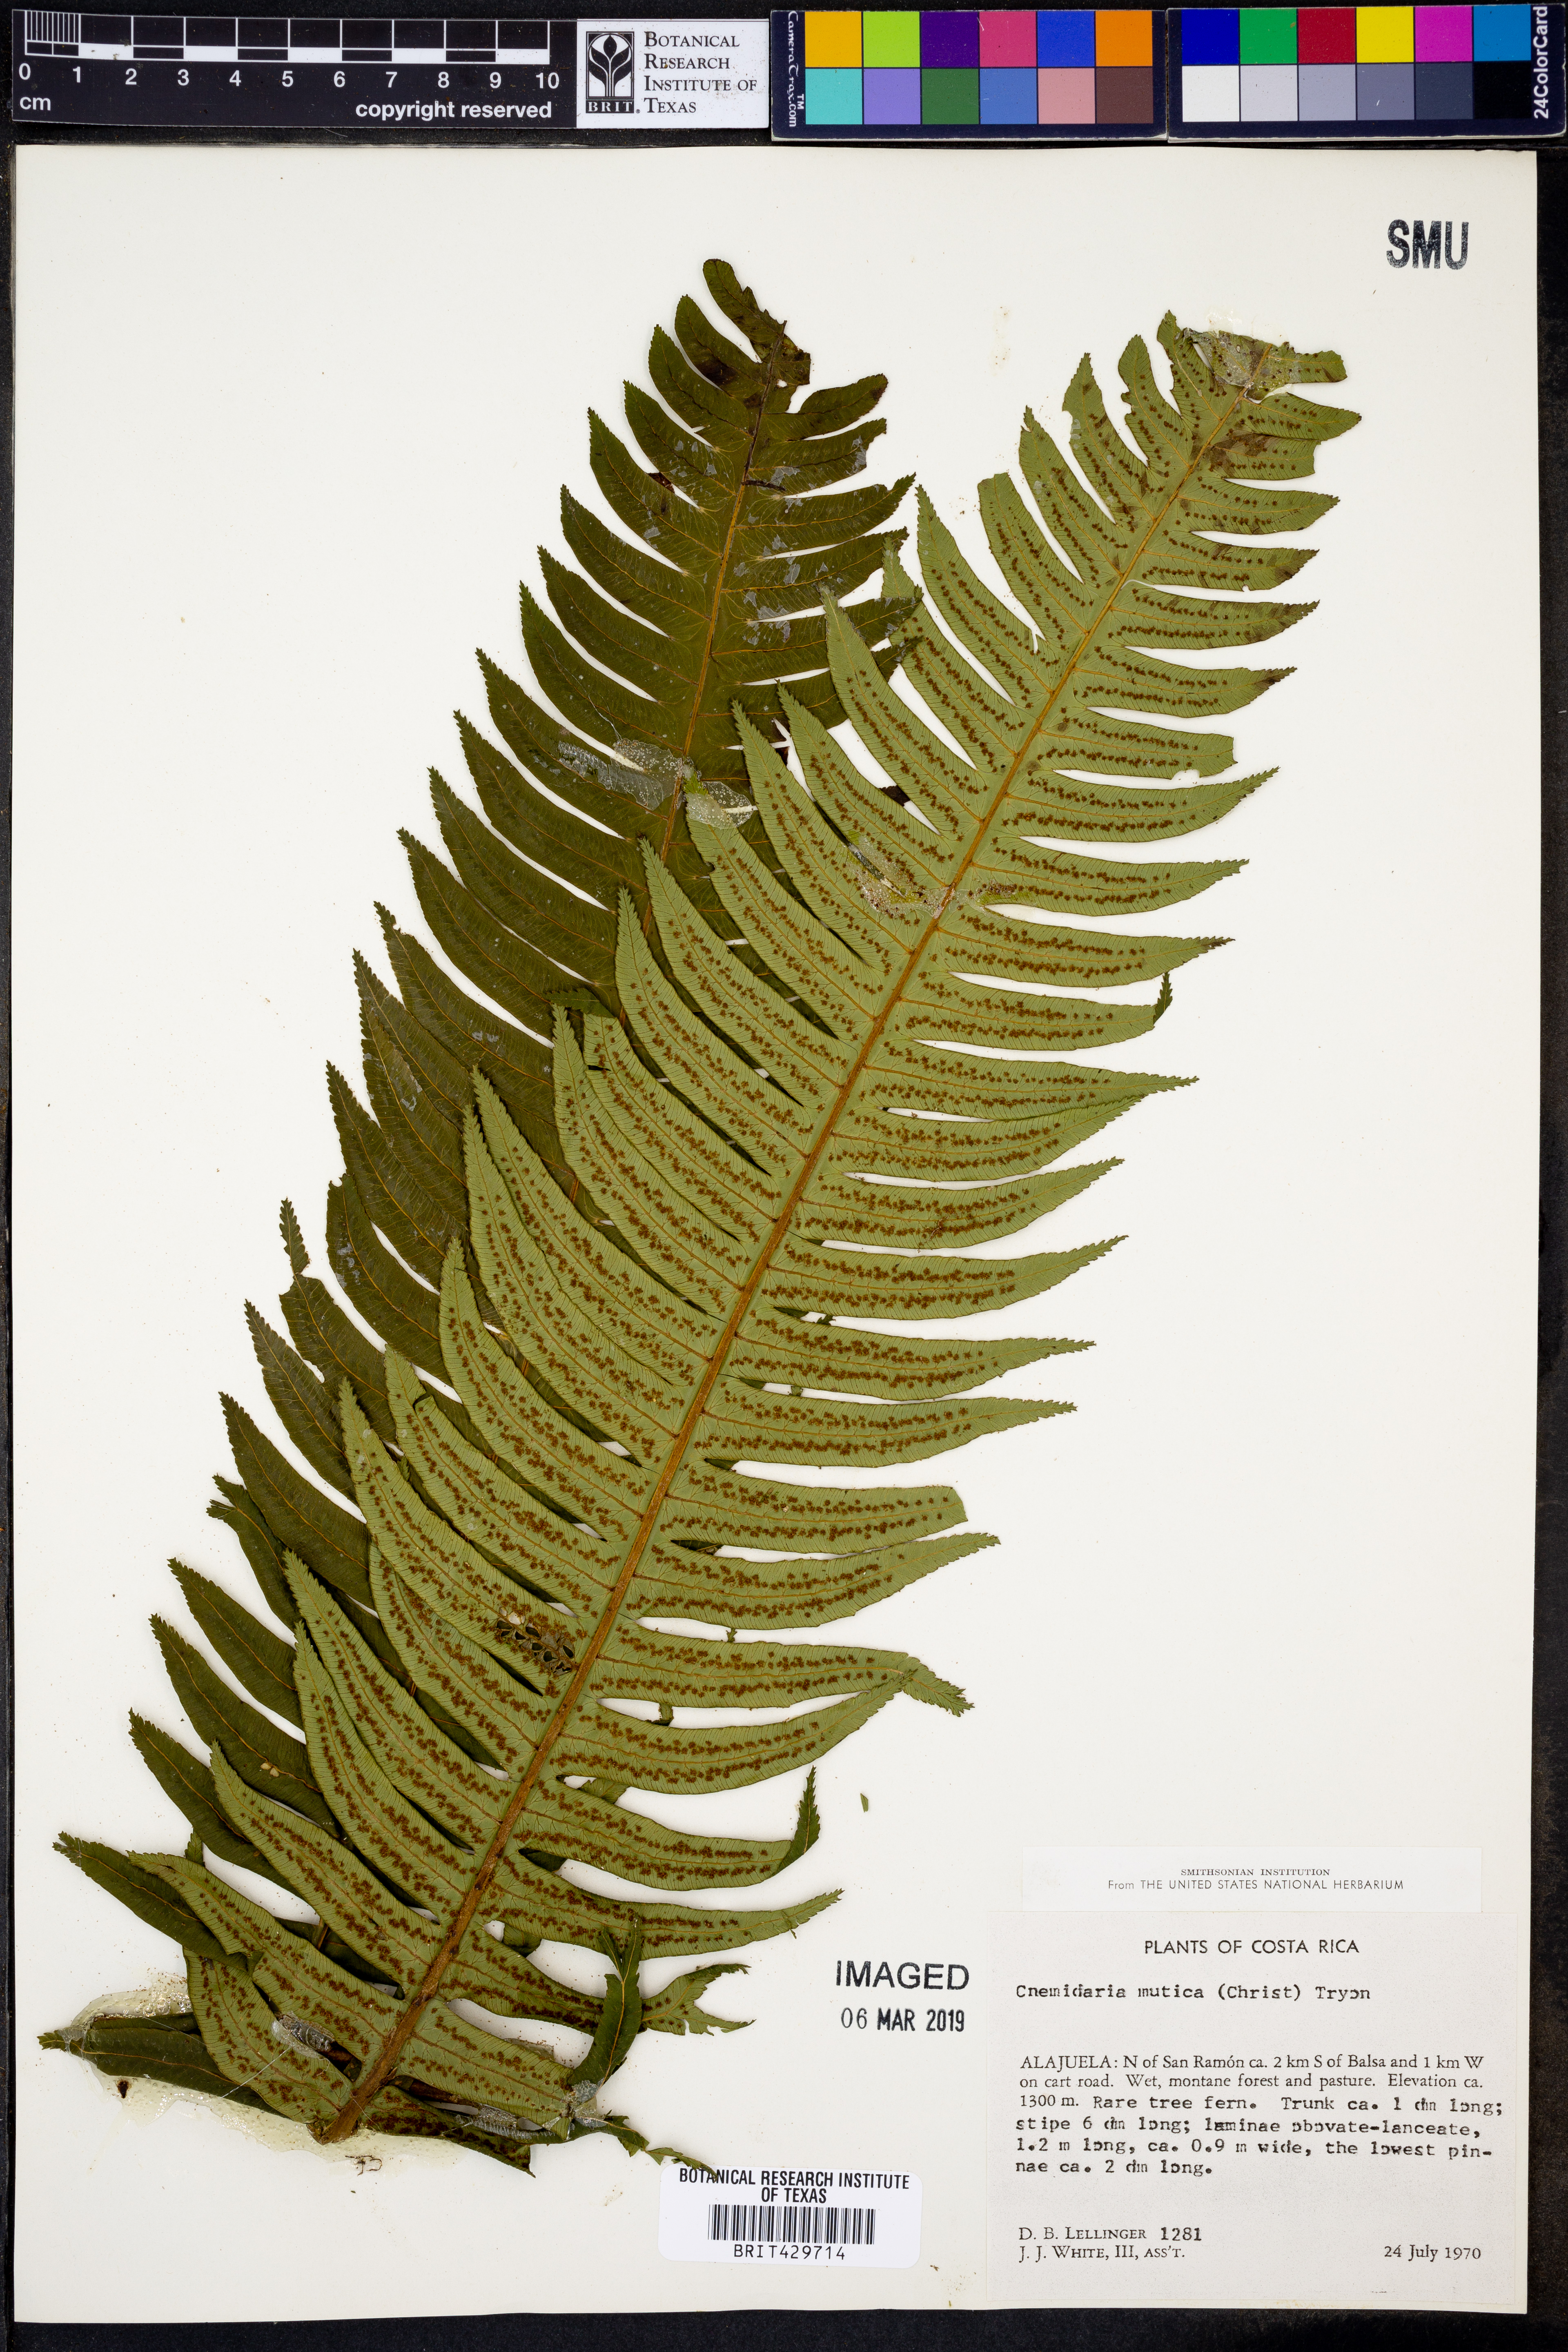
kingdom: Plantae
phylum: Tracheophyta
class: Polypodiopsida
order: Cyatheales
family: Cyatheaceae
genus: Cyathea
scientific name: Cyathea mutica
